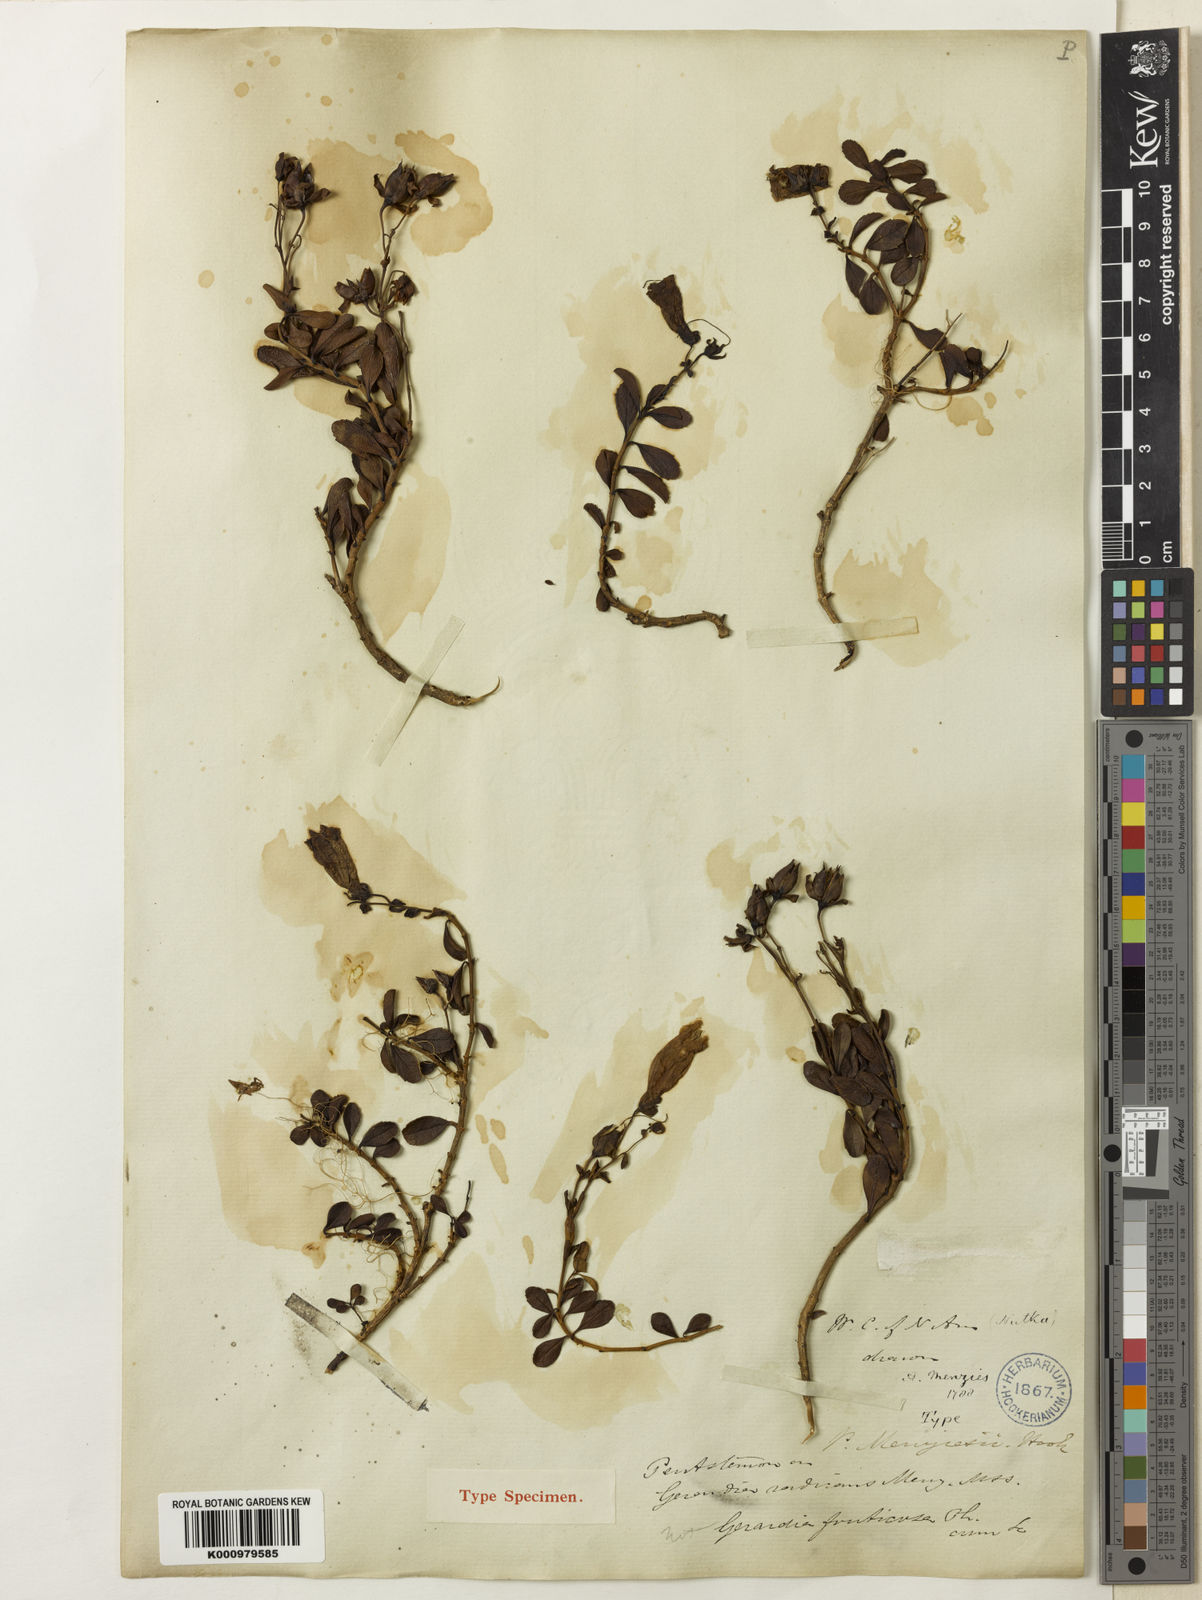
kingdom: Plantae
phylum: Tracheophyta
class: Magnoliopsida
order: Lamiales
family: Plantaginaceae
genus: Penstemon
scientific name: Penstemon
